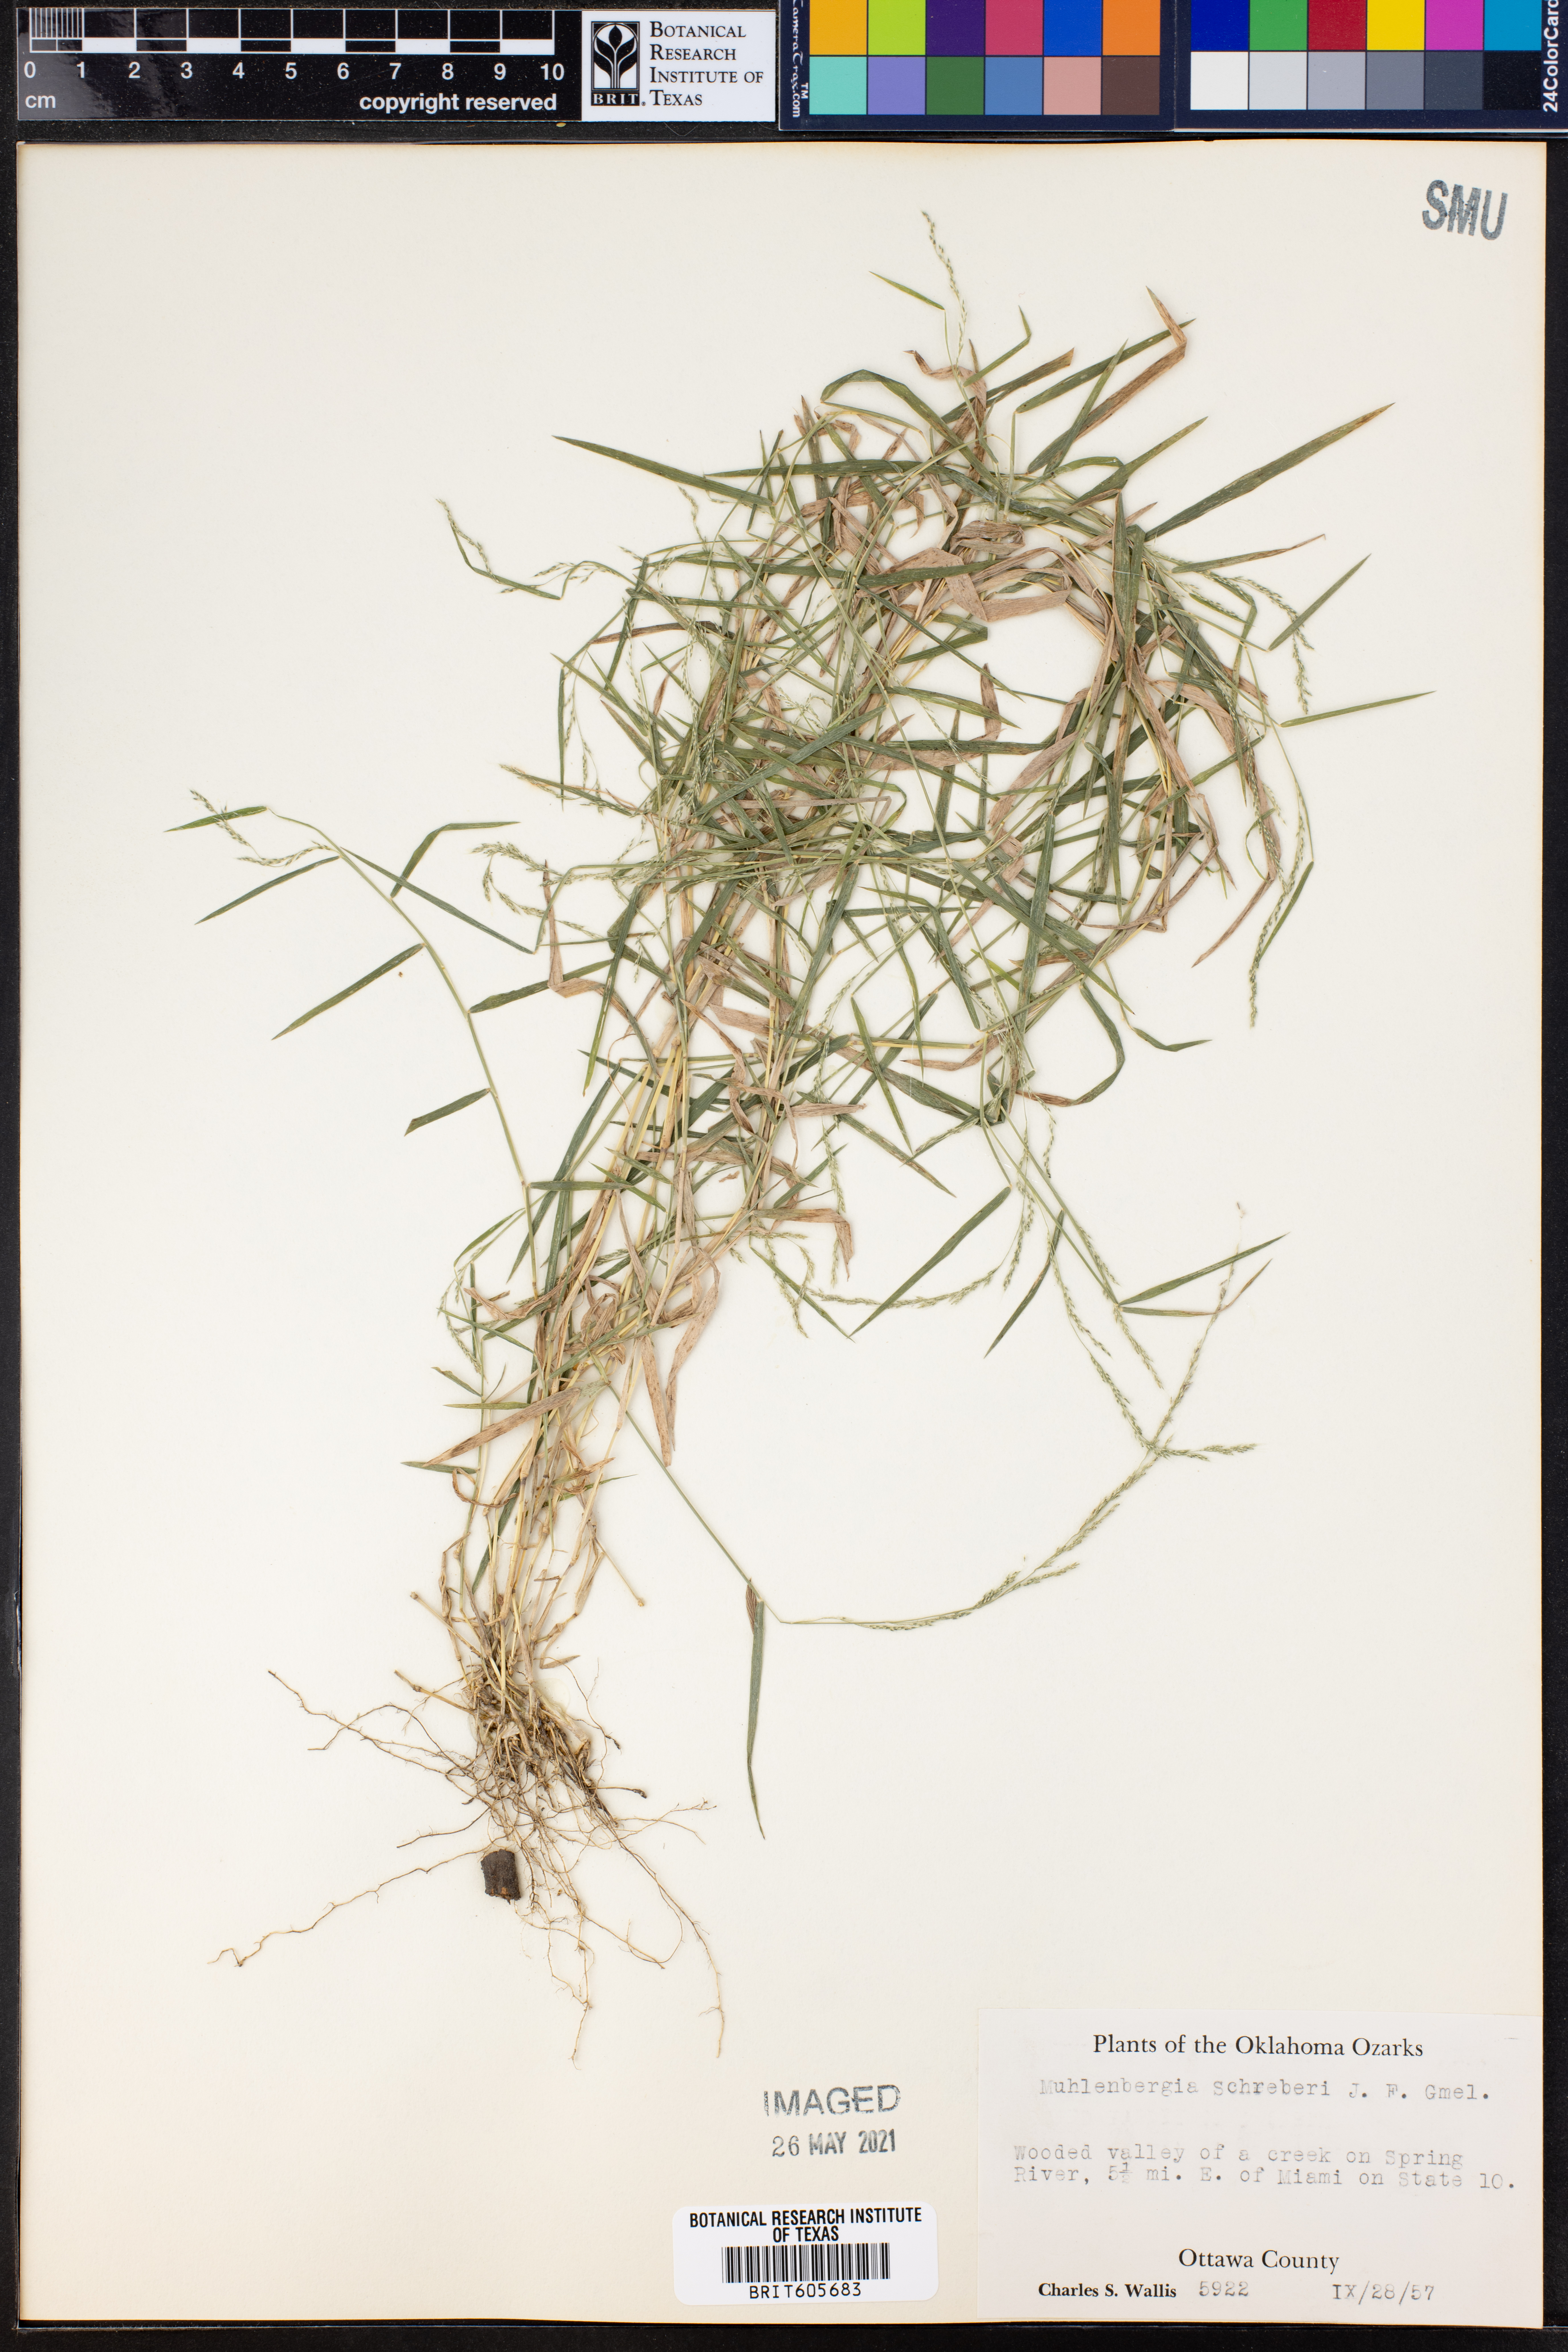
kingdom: Plantae
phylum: Tracheophyta
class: Liliopsida
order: Poales
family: Poaceae
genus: Muhlenbergia
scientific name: Muhlenbergia schreberi
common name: Nimblewill
